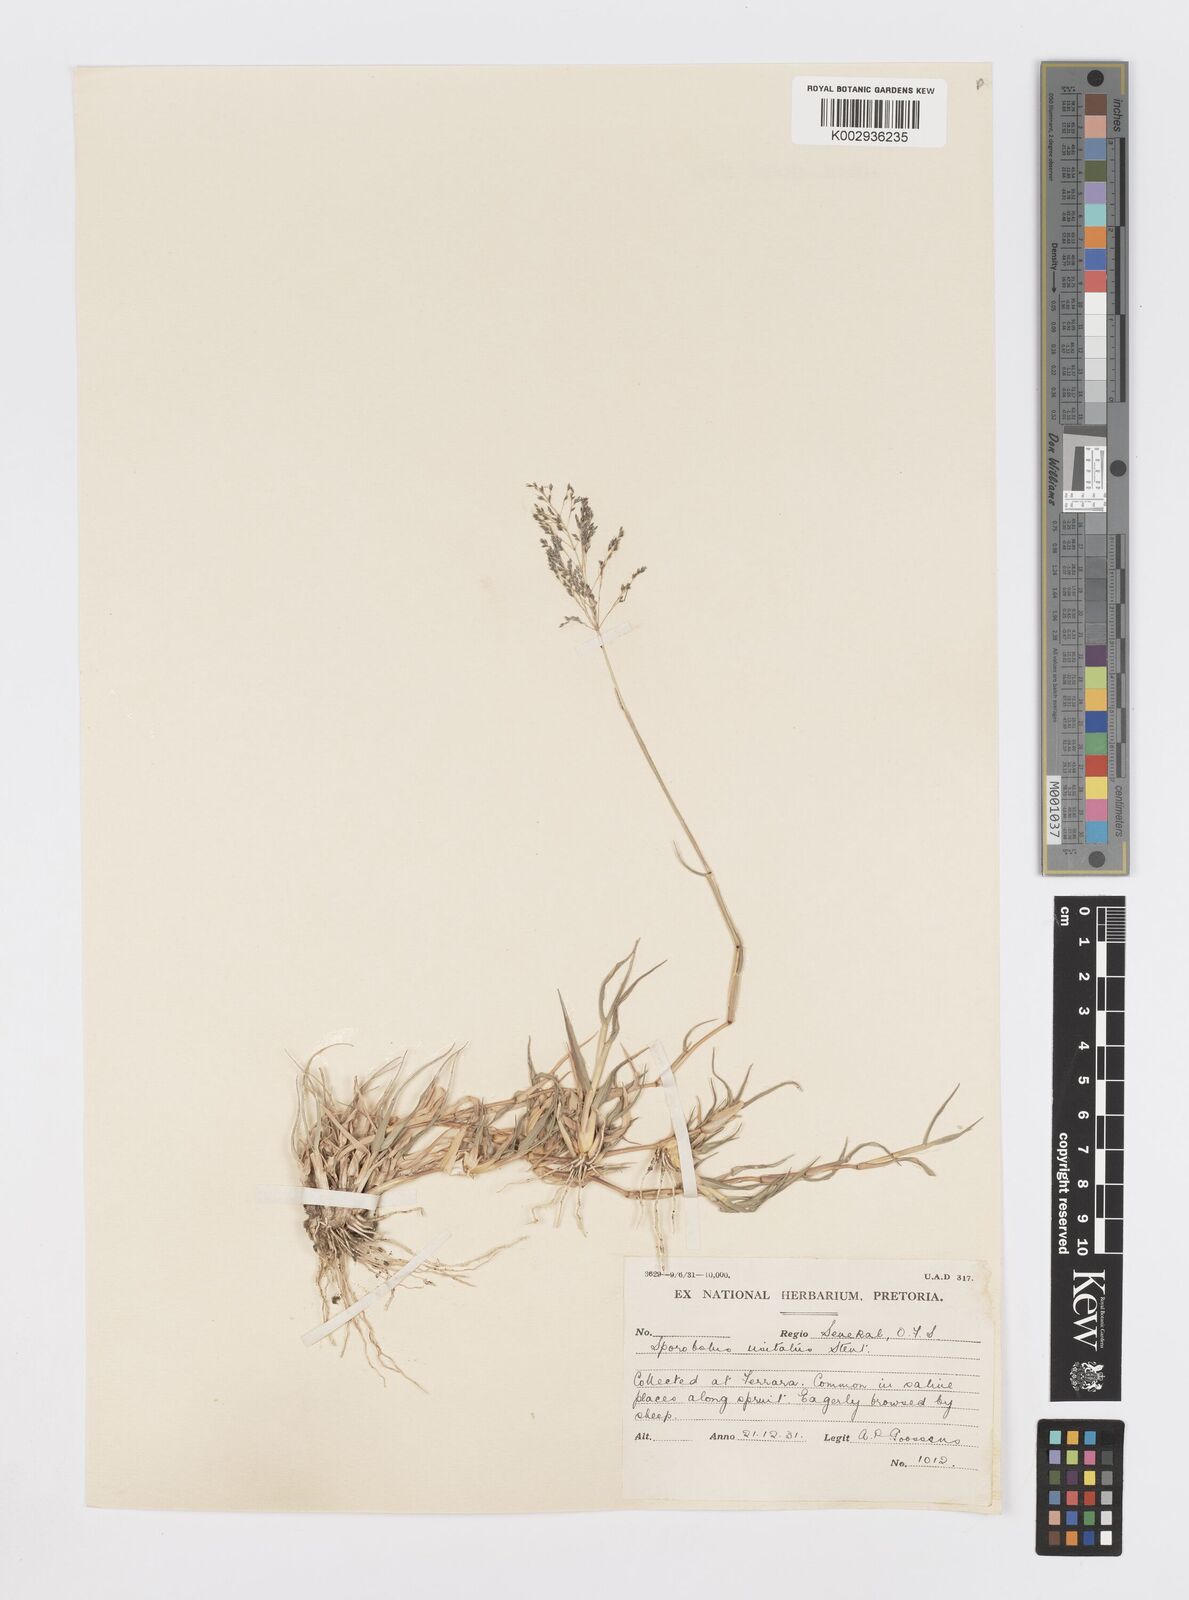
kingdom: Plantae
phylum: Tracheophyta
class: Liliopsida
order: Poales
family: Poaceae
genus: Sporobolus
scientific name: Sporobolus ioclados
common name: Pan dropseed
